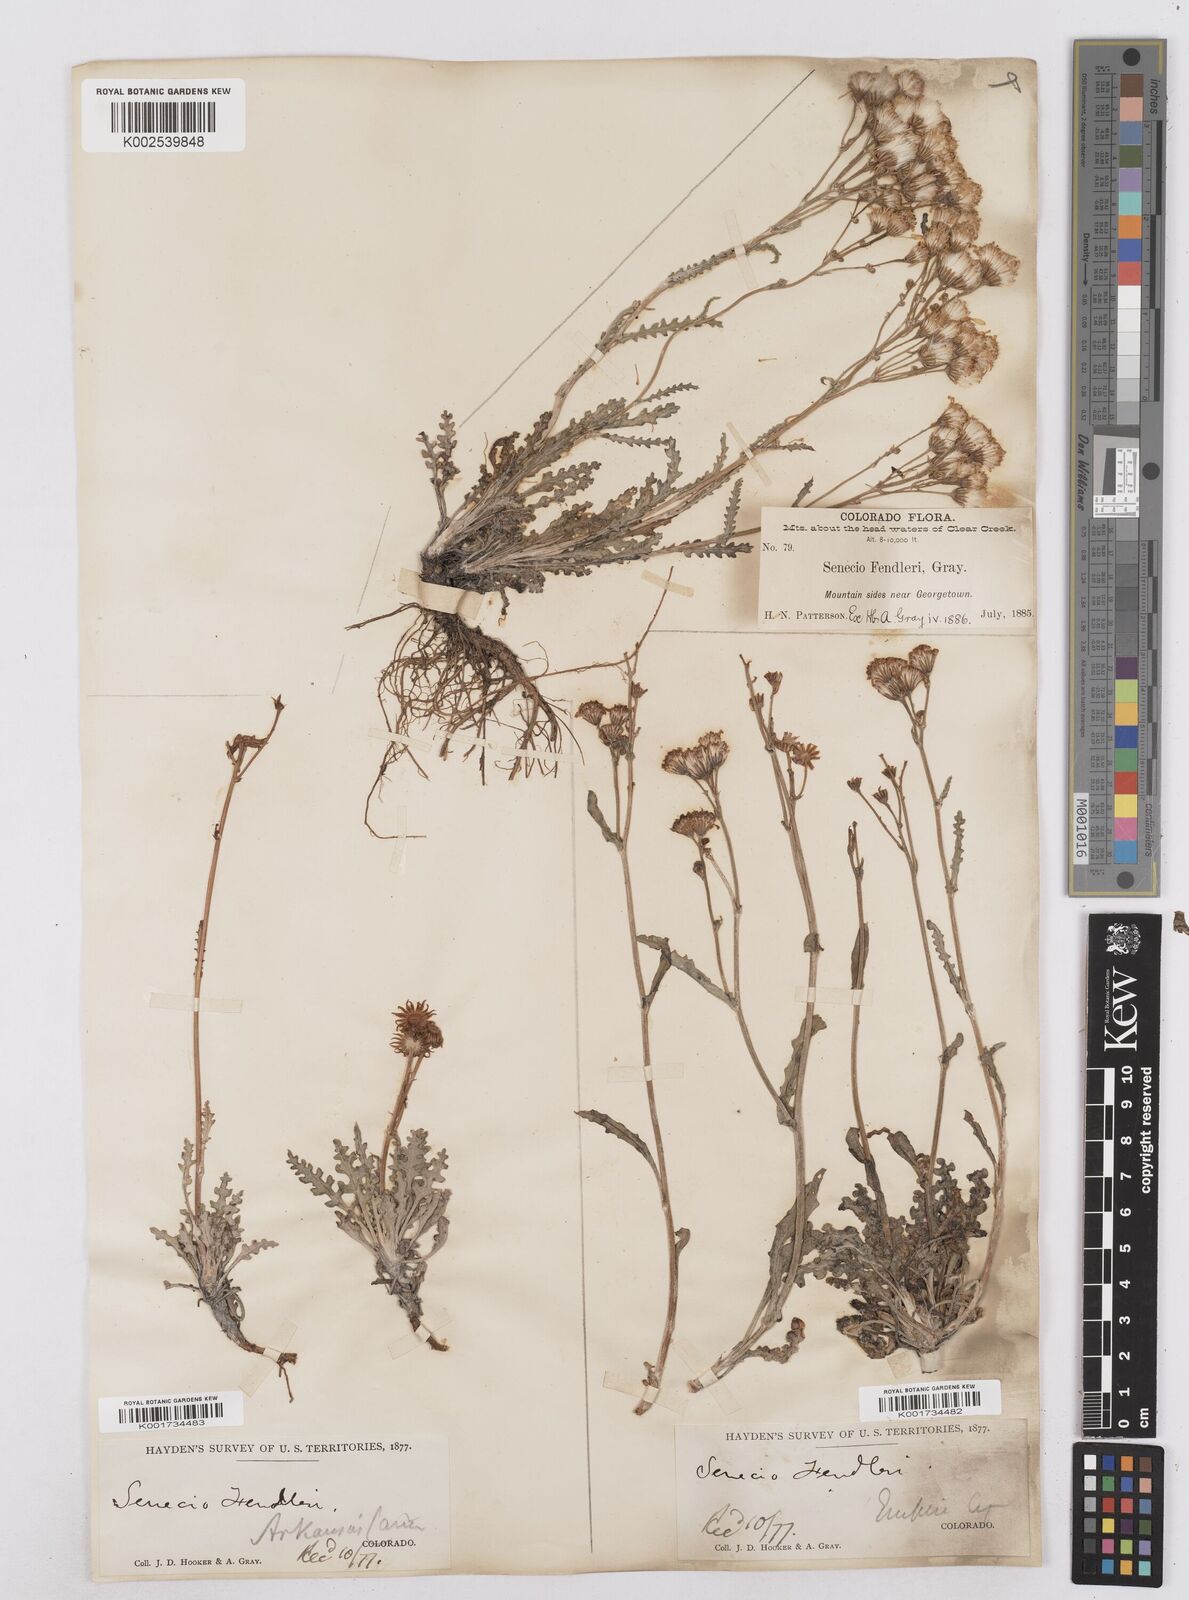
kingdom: Plantae
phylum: Tracheophyta
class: Magnoliopsida
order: Asterales
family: Asteraceae
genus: Packera
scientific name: Packera fendleri
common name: Notch-leaf butterweed
